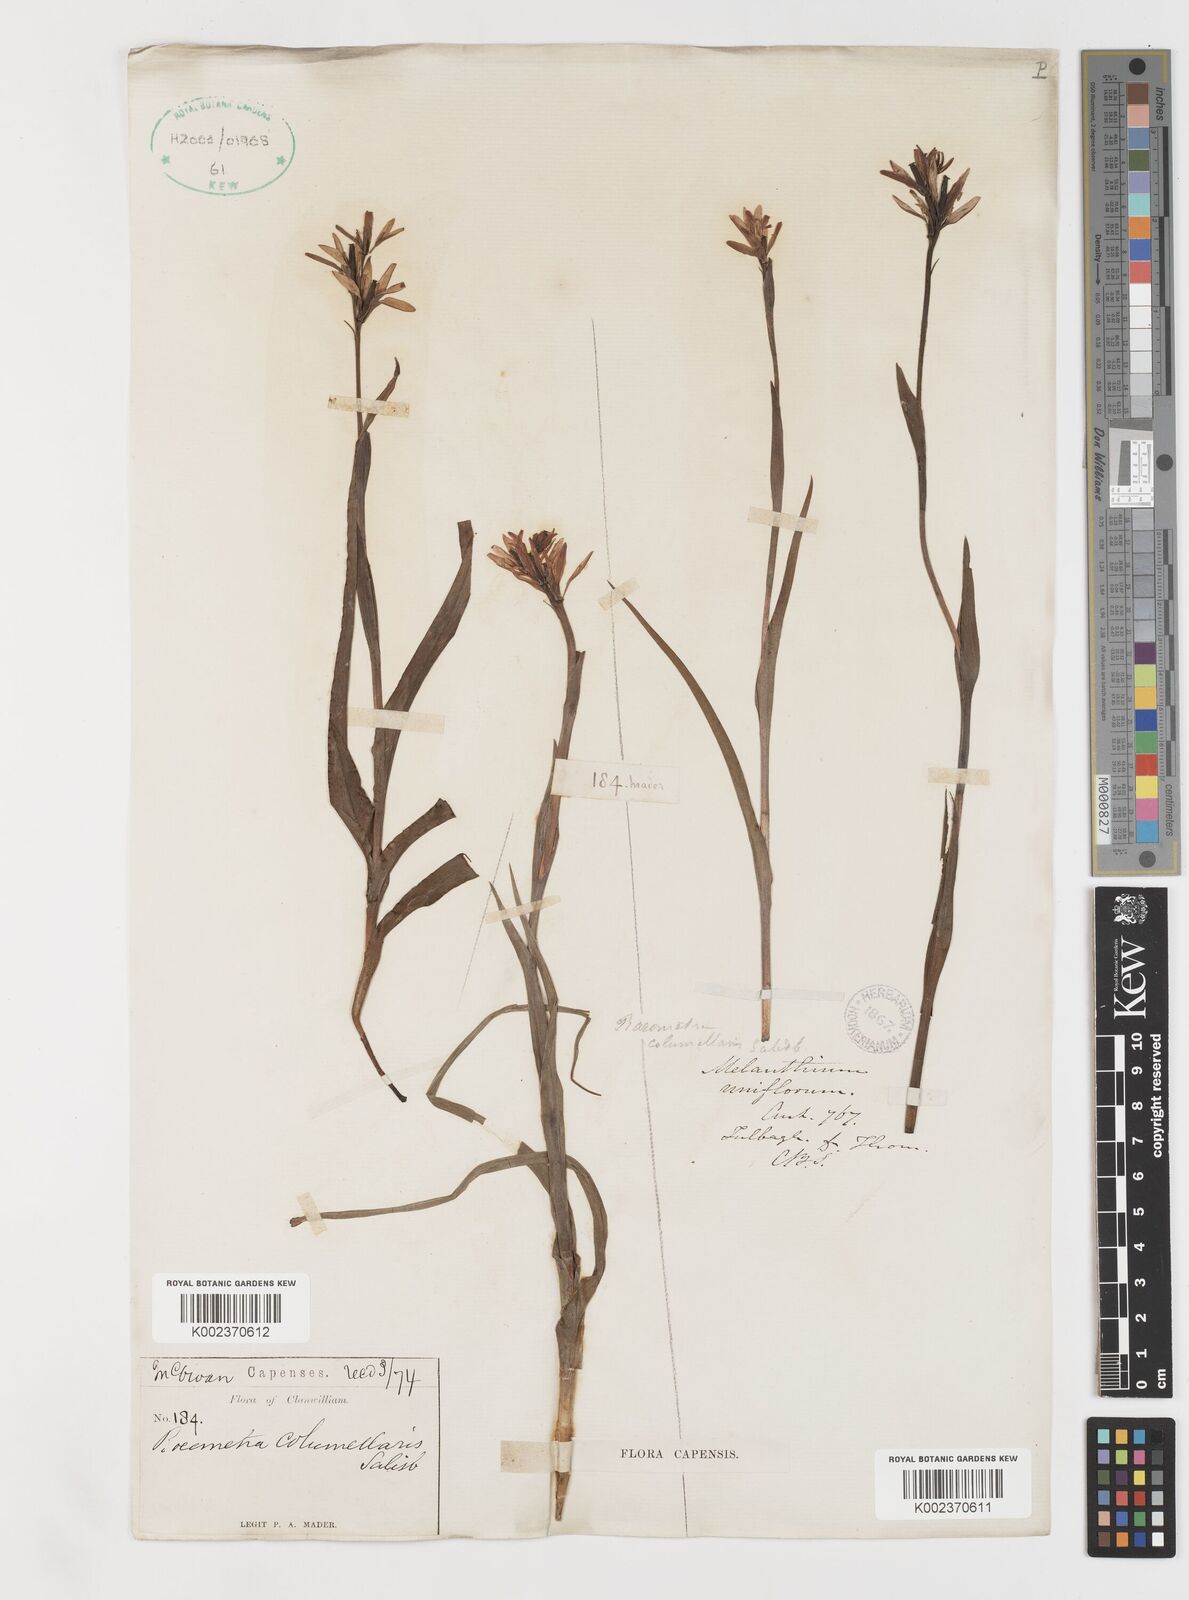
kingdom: Plantae
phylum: Tracheophyta
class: Liliopsida
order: Liliales
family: Colchicaceae
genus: Baeometra
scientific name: Baeometra uniflora
